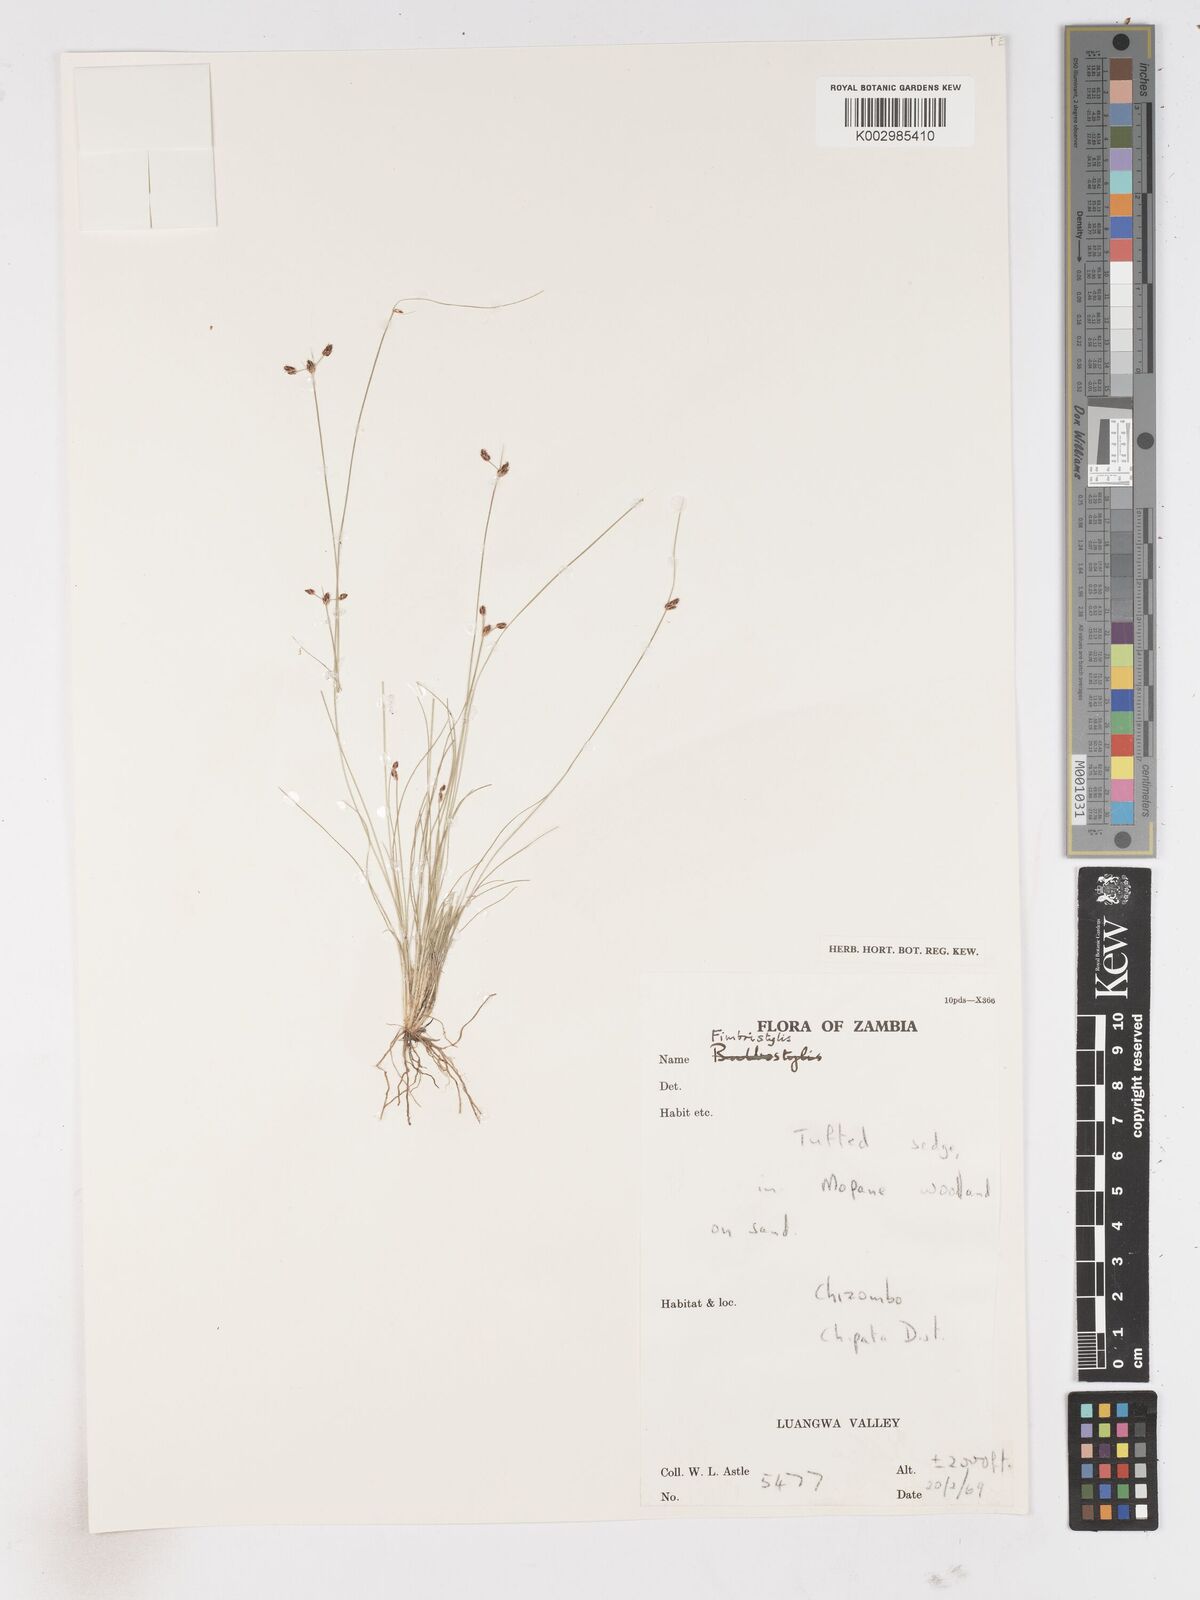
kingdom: Plantae
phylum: Tracheophyta
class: Liliopsida
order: Poales
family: Cyperaceae
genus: Fimbristylis
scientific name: Fimbristylis
